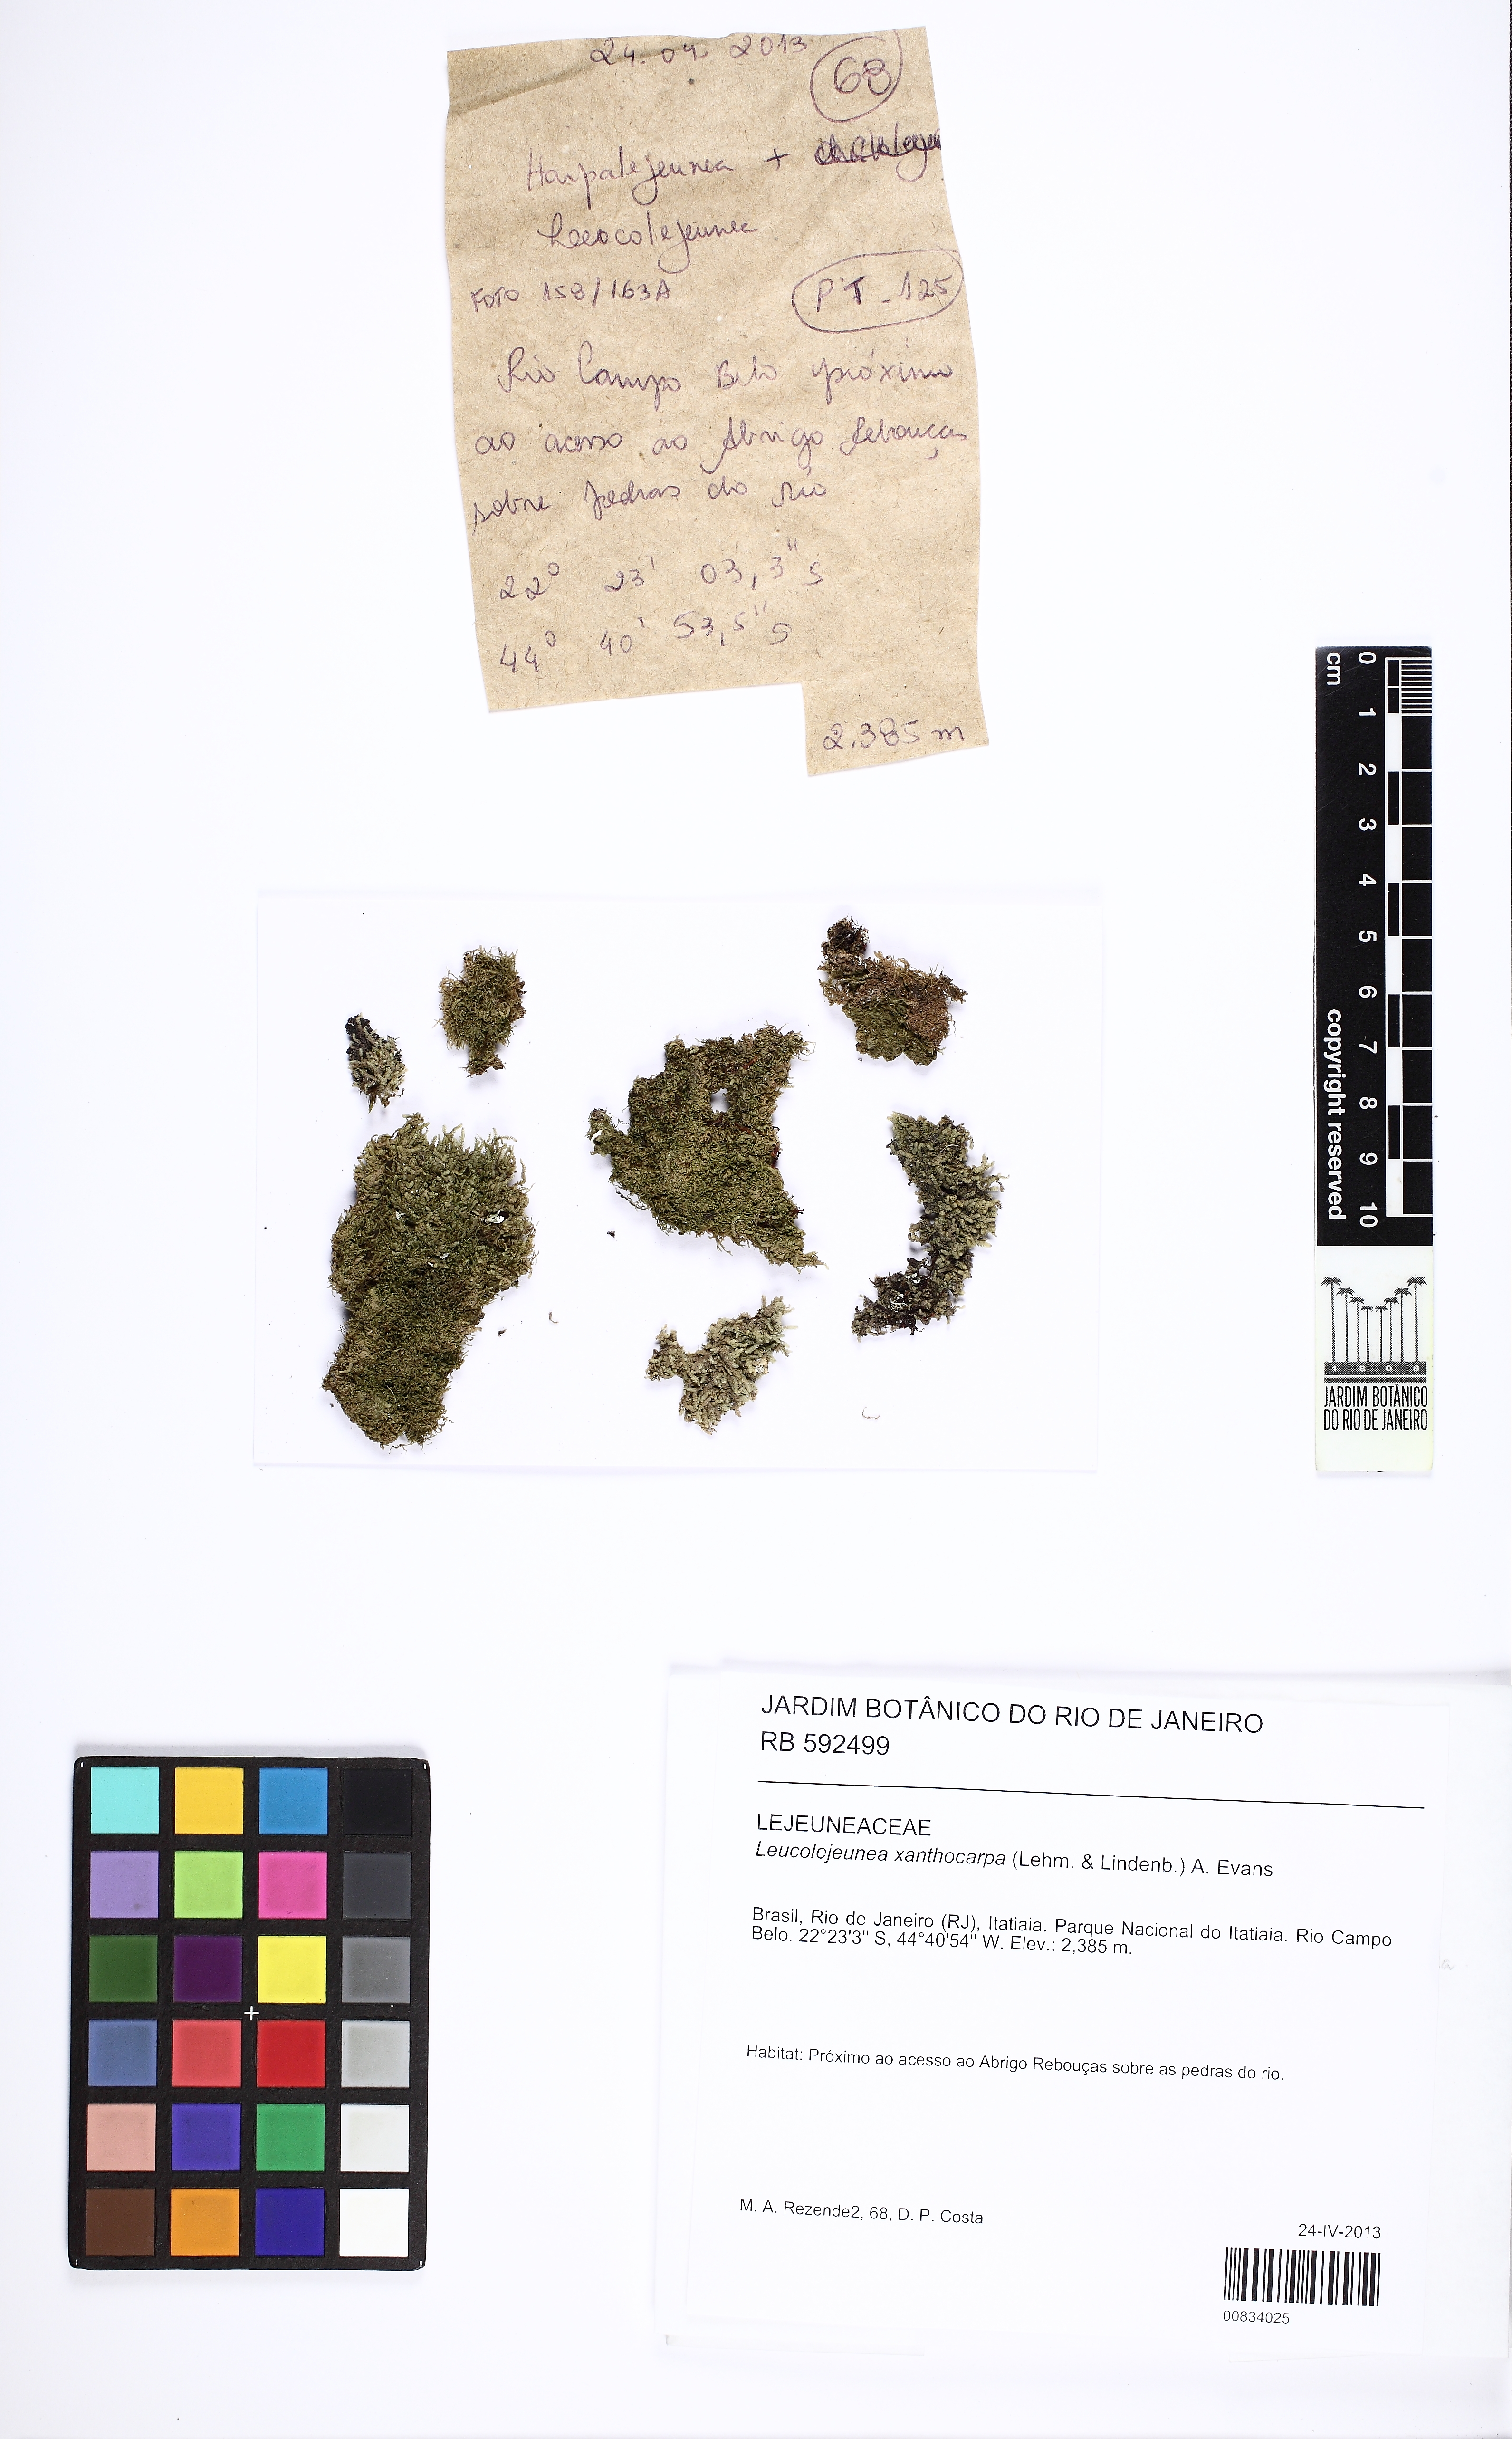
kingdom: Plantae
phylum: Marchantiophyta
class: Jungermanniopsida
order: Porellales
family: Lejeuneaceae
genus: Cheilolejeunea
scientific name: Cheilolejeunea xanthocarpa
